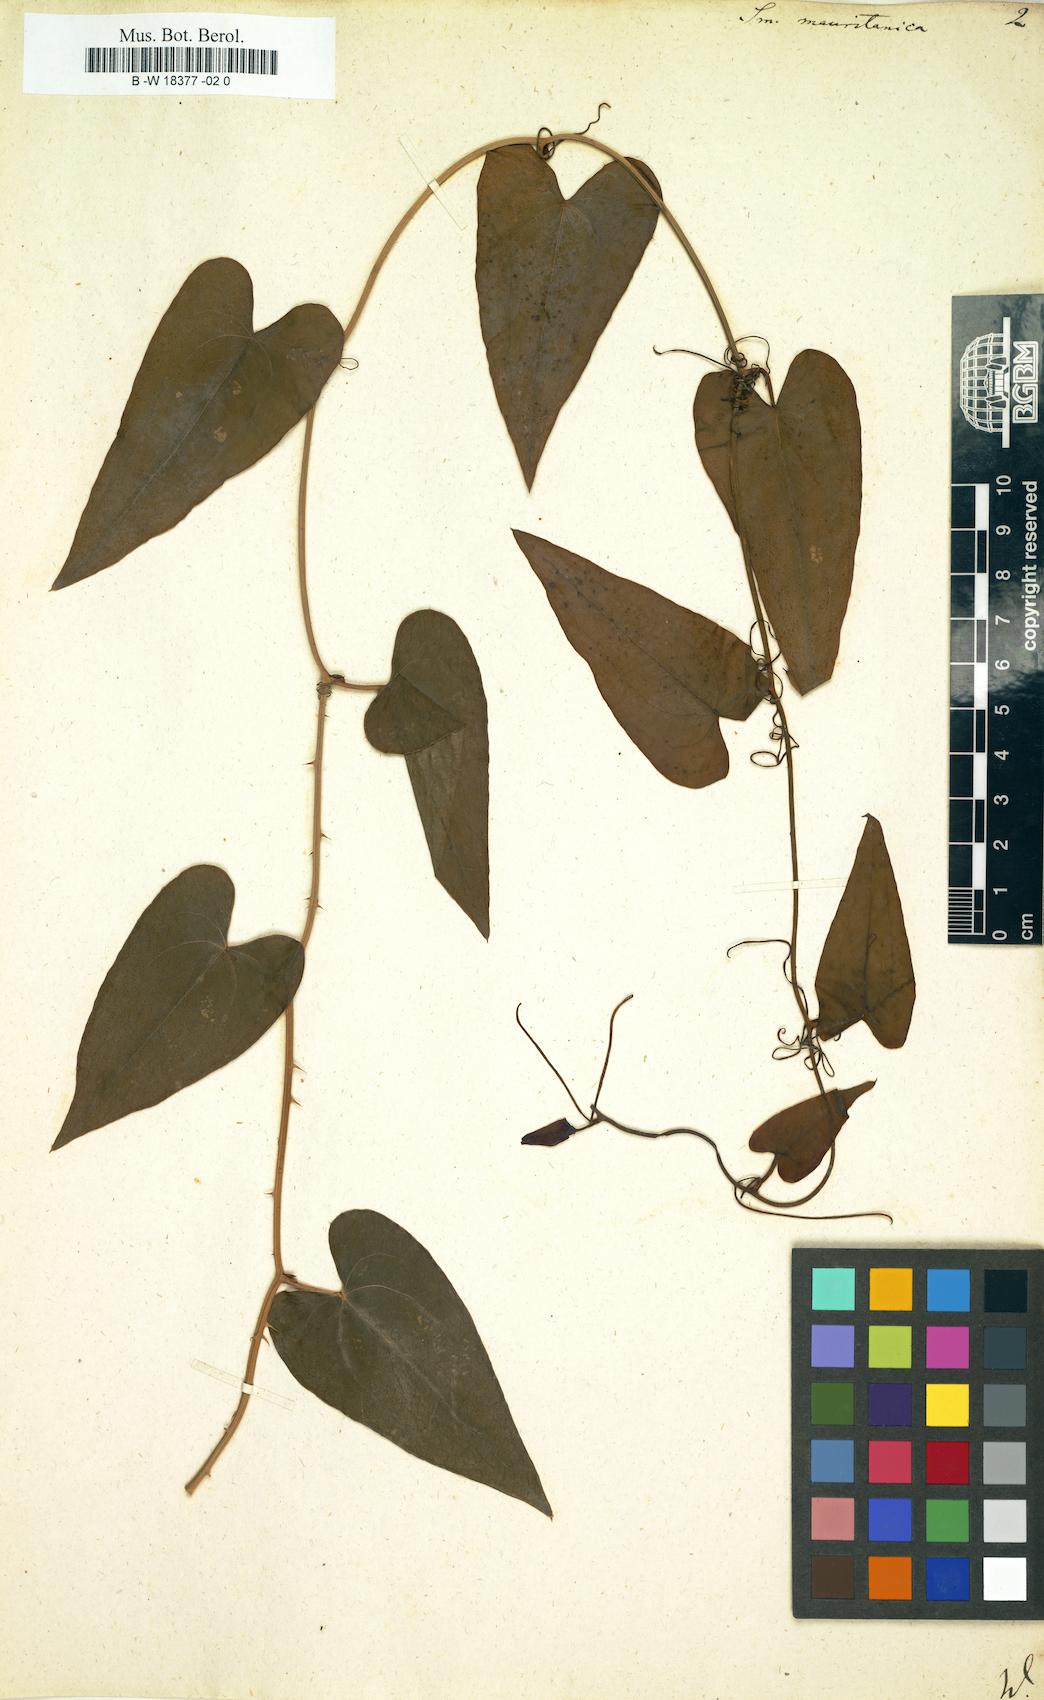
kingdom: Plantae
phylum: Tracheophyta
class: Liliopsida
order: Liliales
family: Smilacaceae
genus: Smilax
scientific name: Smilax aspera
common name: Common smilax
